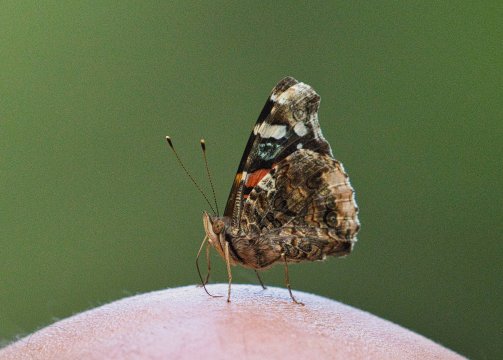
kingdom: Animalia
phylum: Arthropoda
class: Insecta
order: Lepidoptera
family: Nymphalidae
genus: Vanessa
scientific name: Vanessa atalanta
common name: Red Admiral
